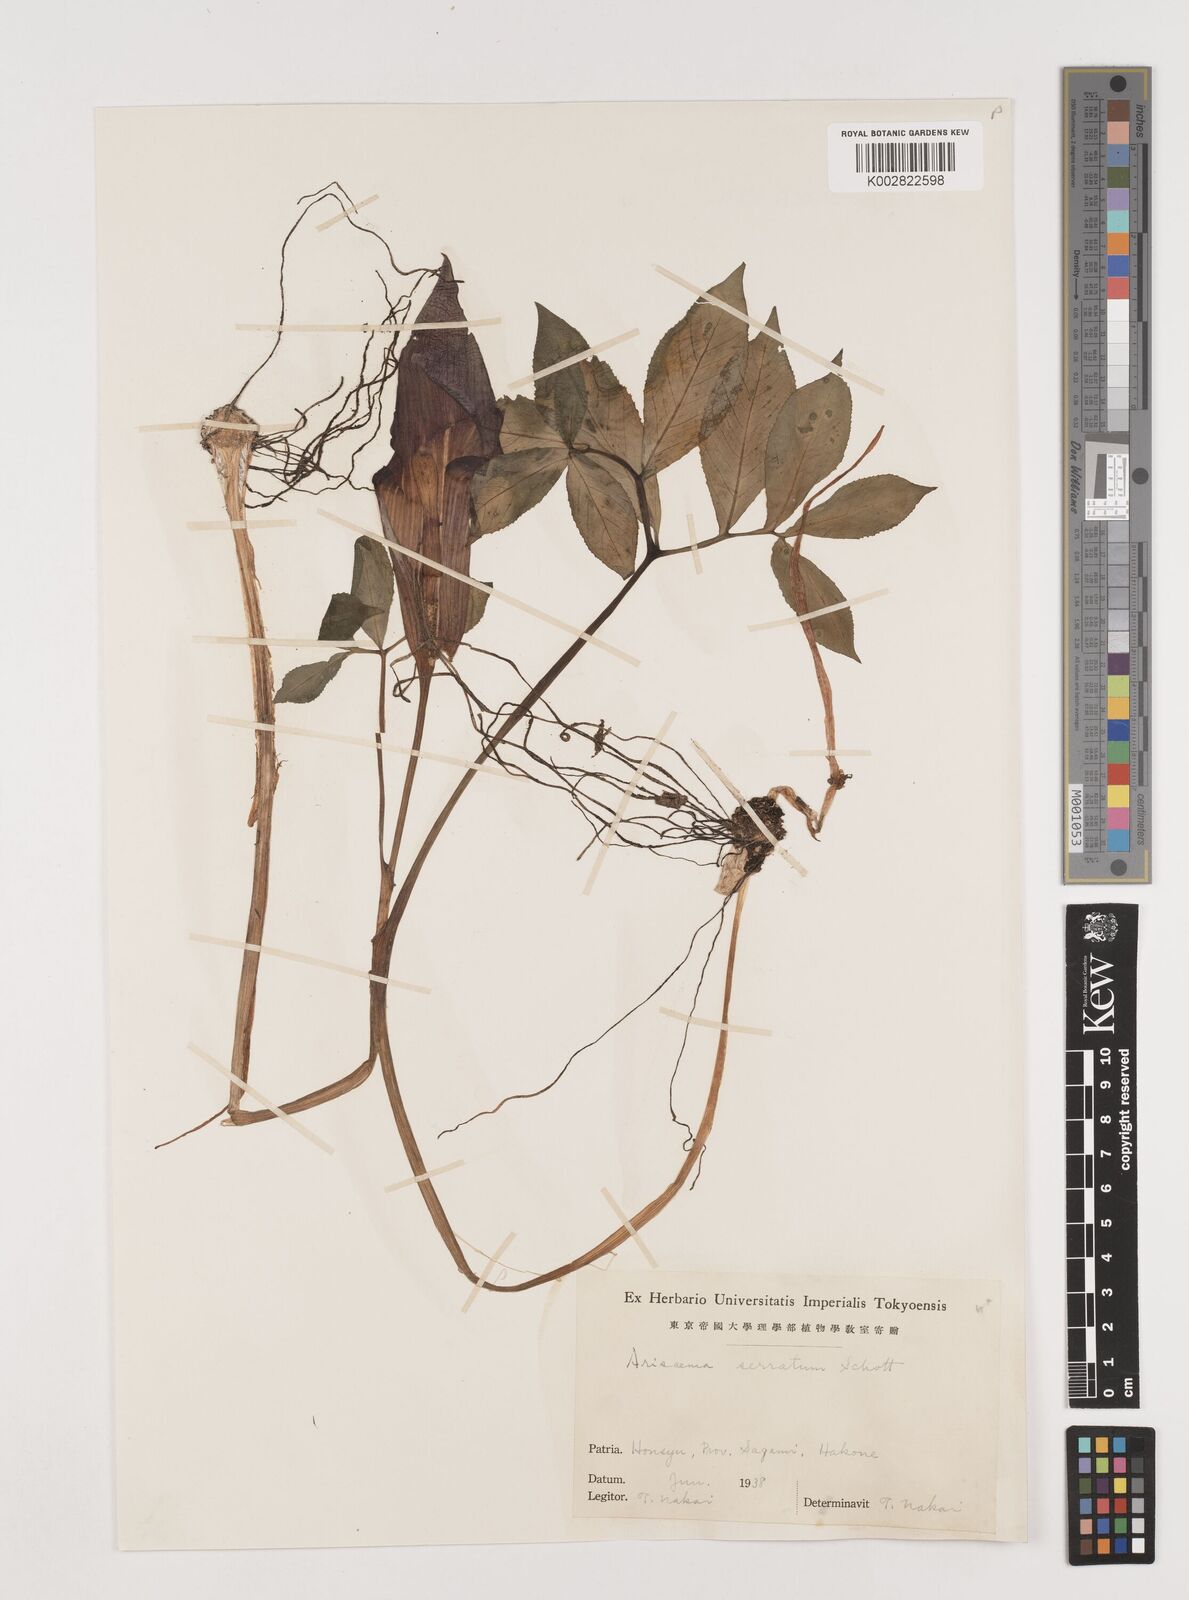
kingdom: Plantae
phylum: Tracheophyta
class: Liliopsida
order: Alismatales
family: Araceae
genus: Arisaema
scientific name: Arisaema serratum
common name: Japanese arisaema
